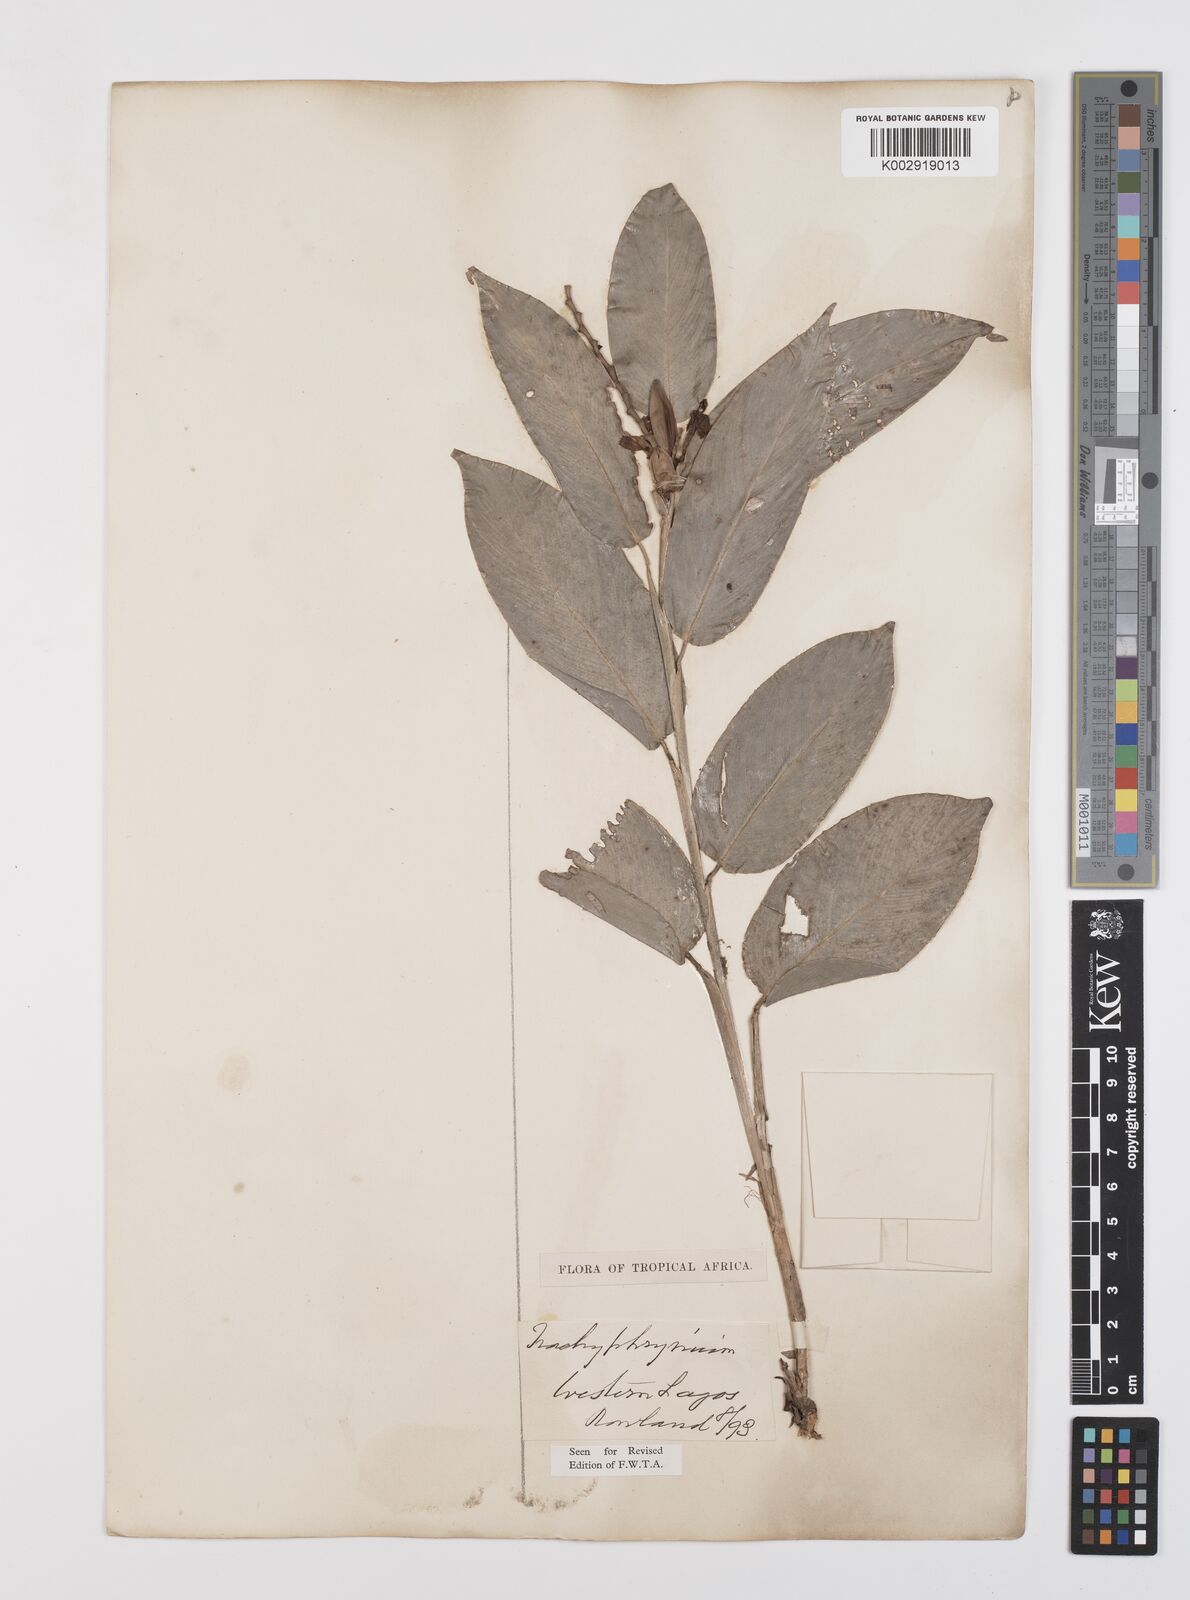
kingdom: Plantae
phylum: Tracheophyta
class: Liliopsida
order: Zingiberales
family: Marantaceae
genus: Trachyphrynium
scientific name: Trachyphrynium braunianum
